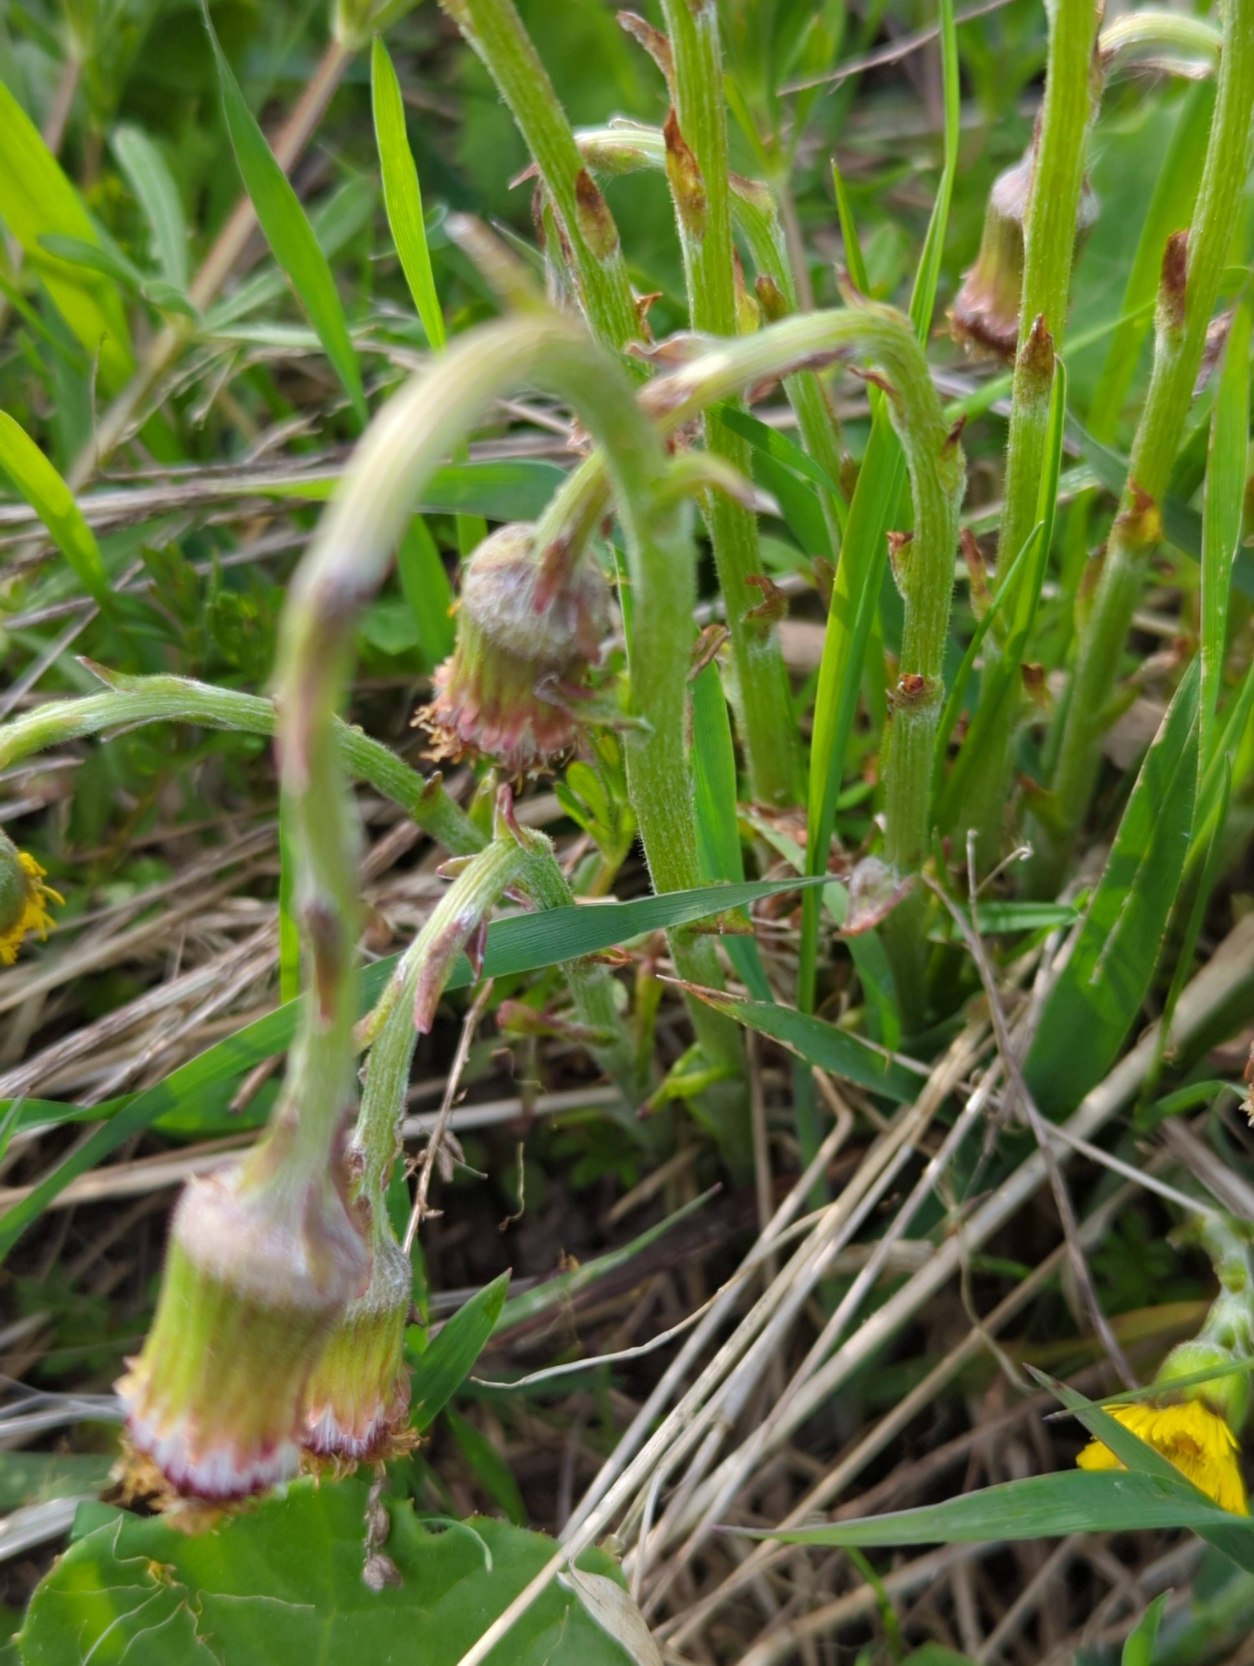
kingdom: Plantae
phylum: Tracheophyta
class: Magnoliopsida
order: Asterales
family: Asteraceae
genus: Tussilago
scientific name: Tussilago farfara
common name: Følfod
